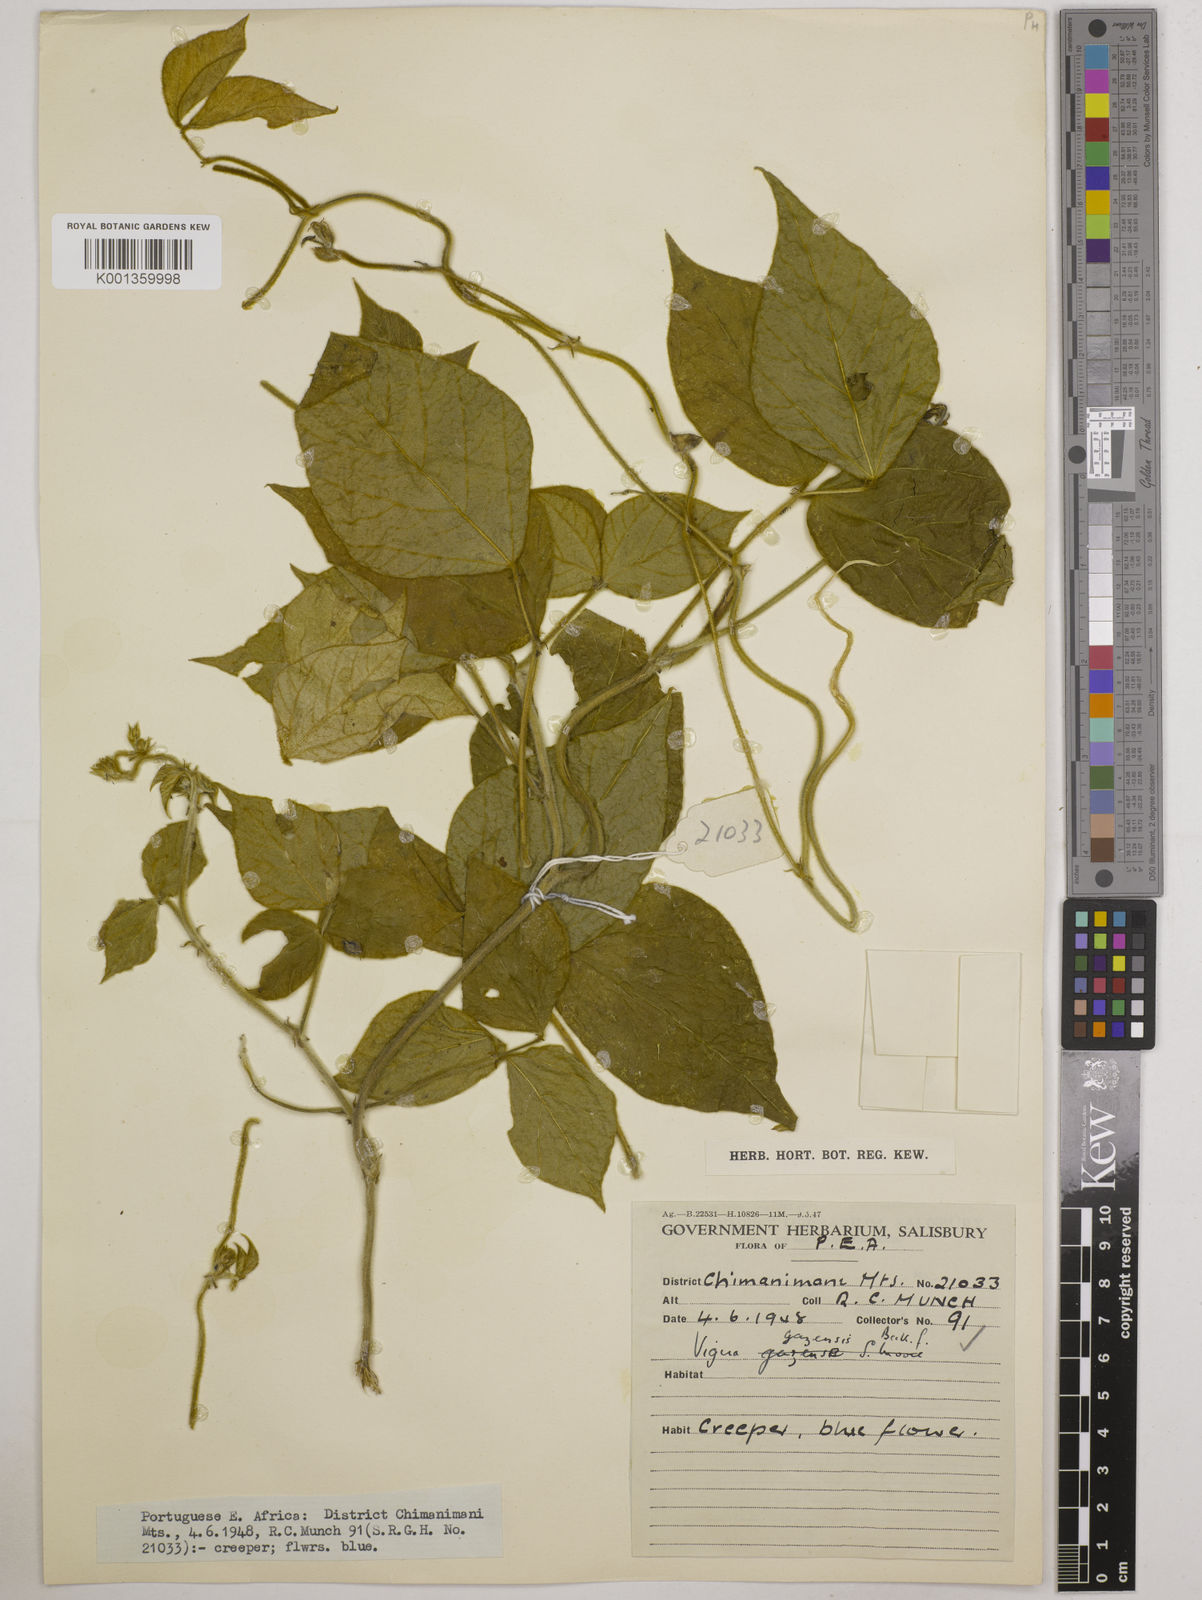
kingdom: Plantae
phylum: Tracheophyta
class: Magnoliopsida
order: Fabales
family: Fabaceae
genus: Vigna
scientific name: Vigna gazensis
